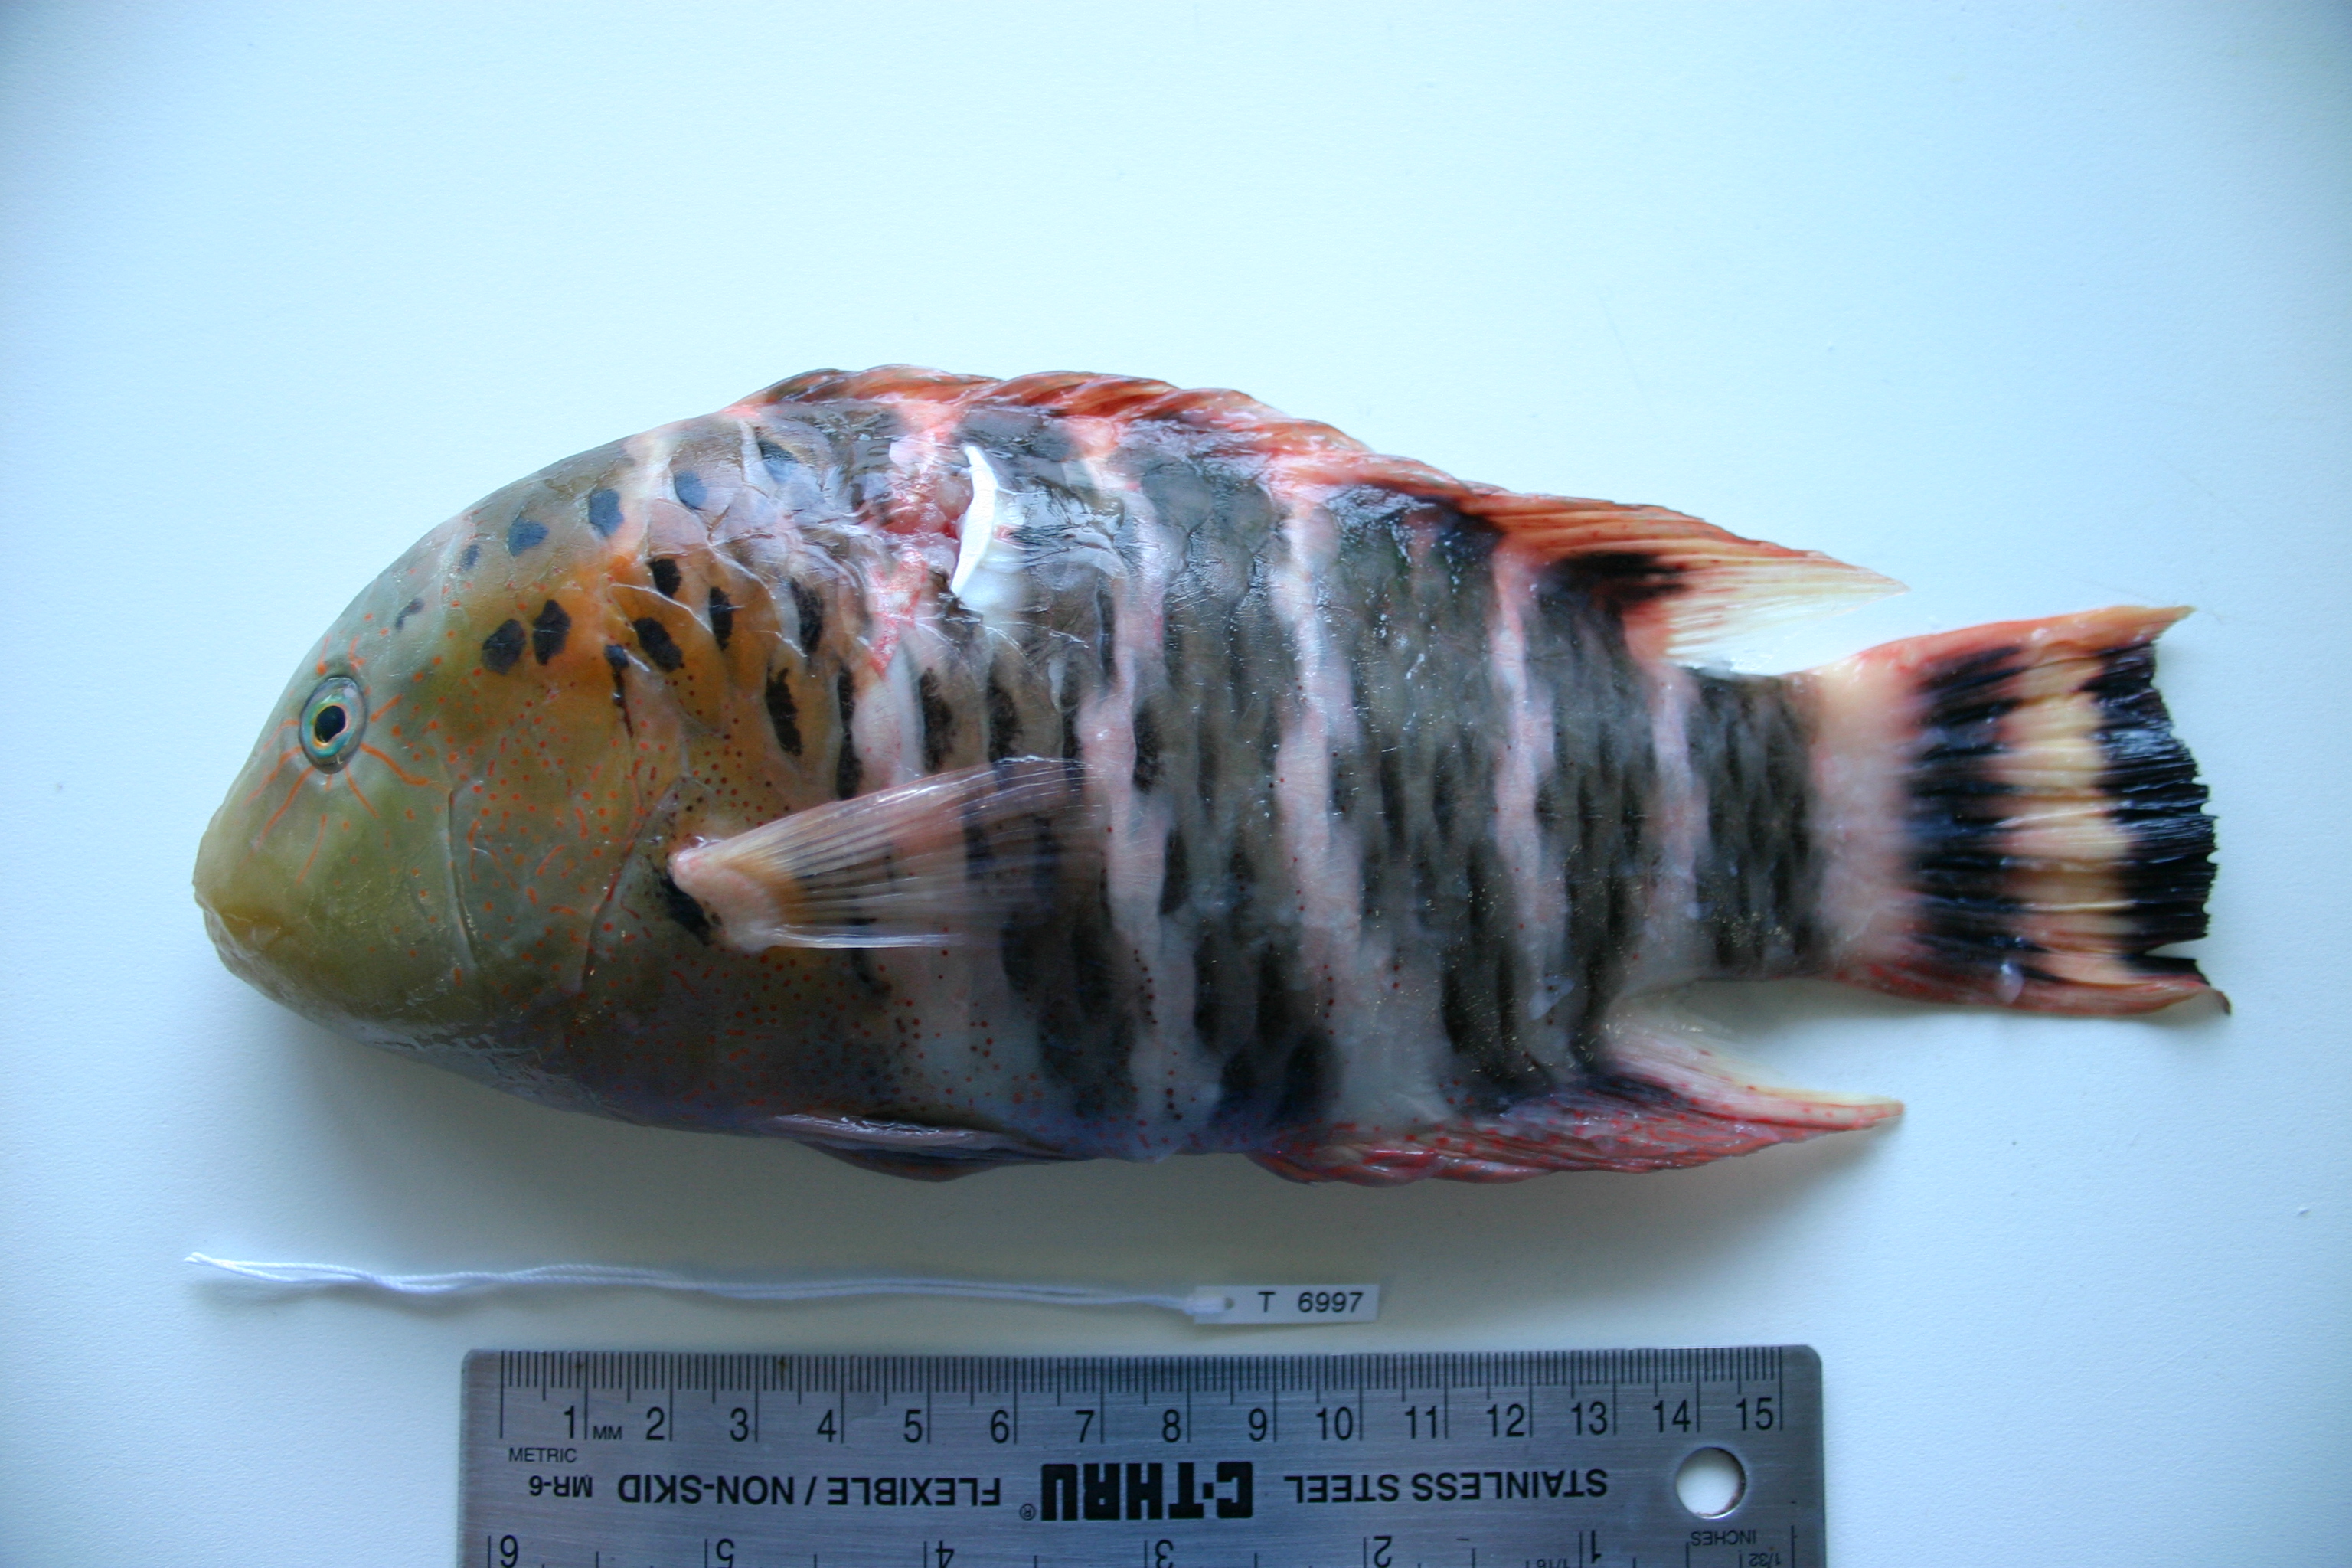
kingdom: Animalia
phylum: Chordata
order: Perciformes
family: Labridae
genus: Cheilinus
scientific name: Cheilinus fasciatus
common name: Red-breasted wrasse
